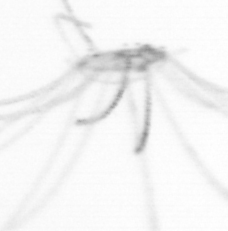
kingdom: Animalia
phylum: Cnidaria
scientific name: Cnidaria
